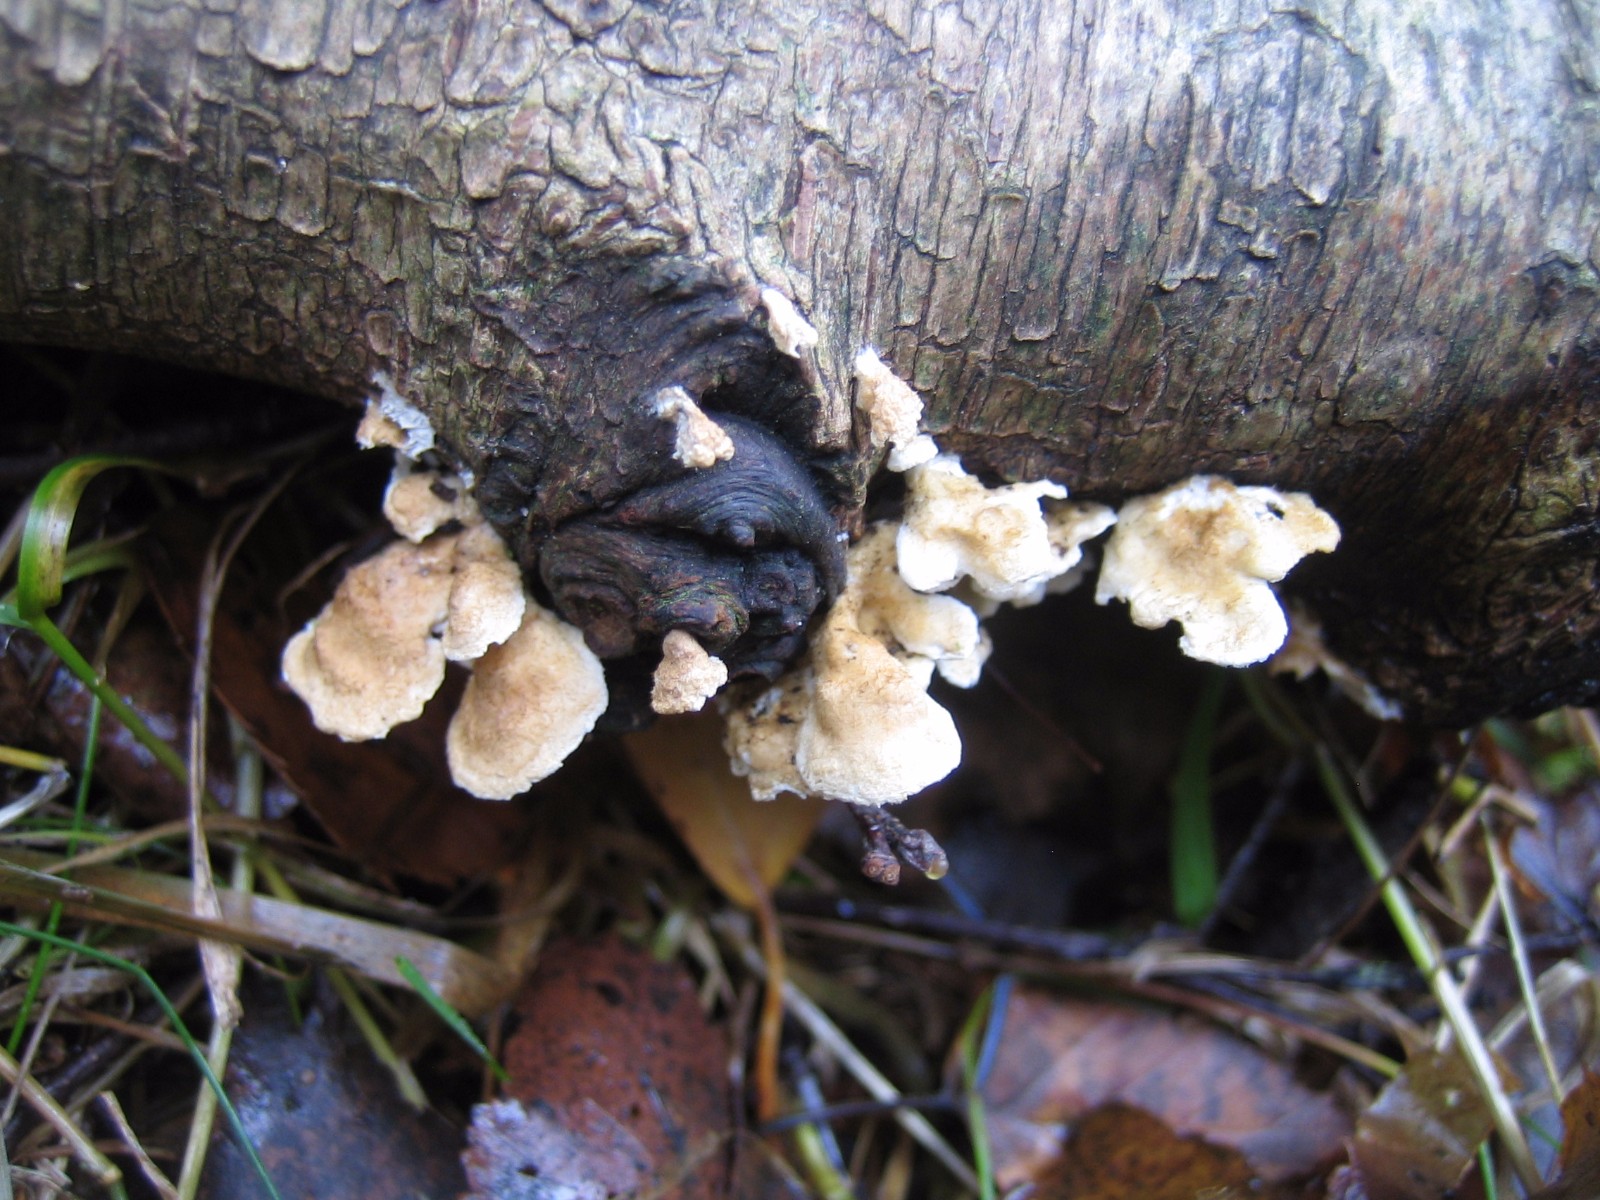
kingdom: Fungi
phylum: Basidiomycota
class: Agaricomycetes
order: Amylocorticiales
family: Amylocorticiaceae
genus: Plicaturopsis
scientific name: Plicaturopsis crispa
